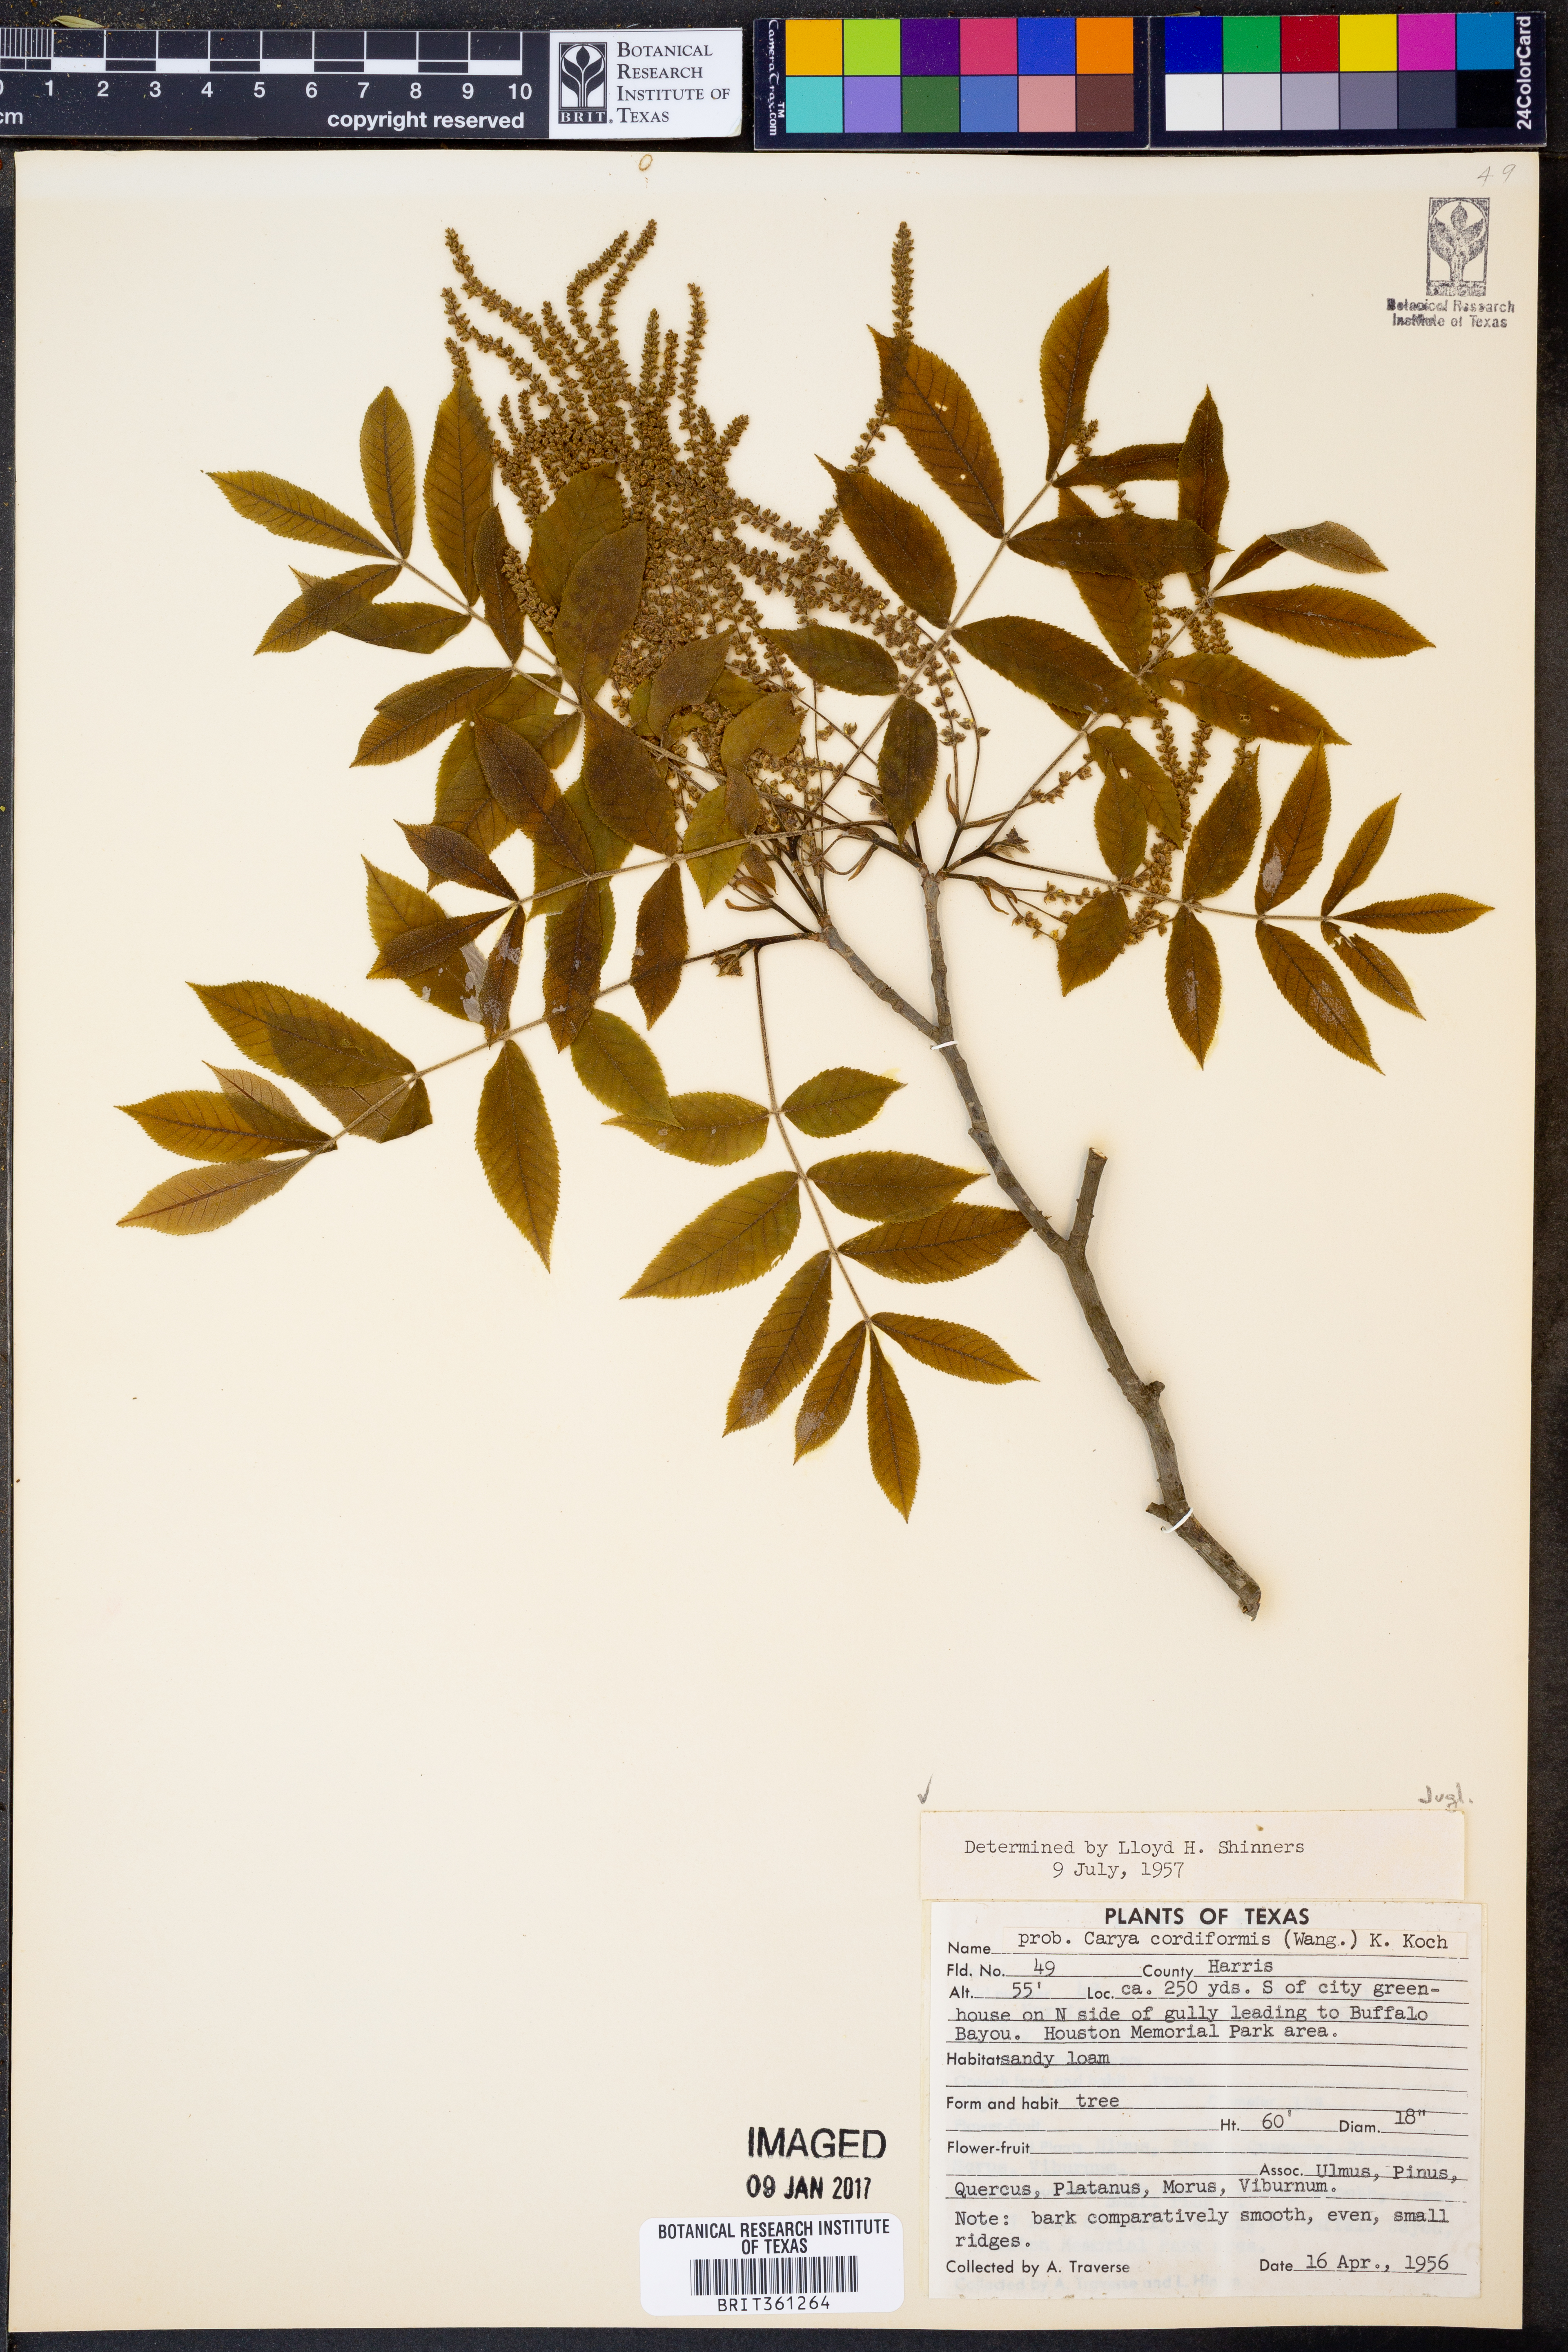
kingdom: Plantae
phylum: Tracheophyta
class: Magnoliopsida
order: Fagales
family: Juglandaceae
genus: Carya
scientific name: Carya cordiformis
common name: Bitternut hickory
